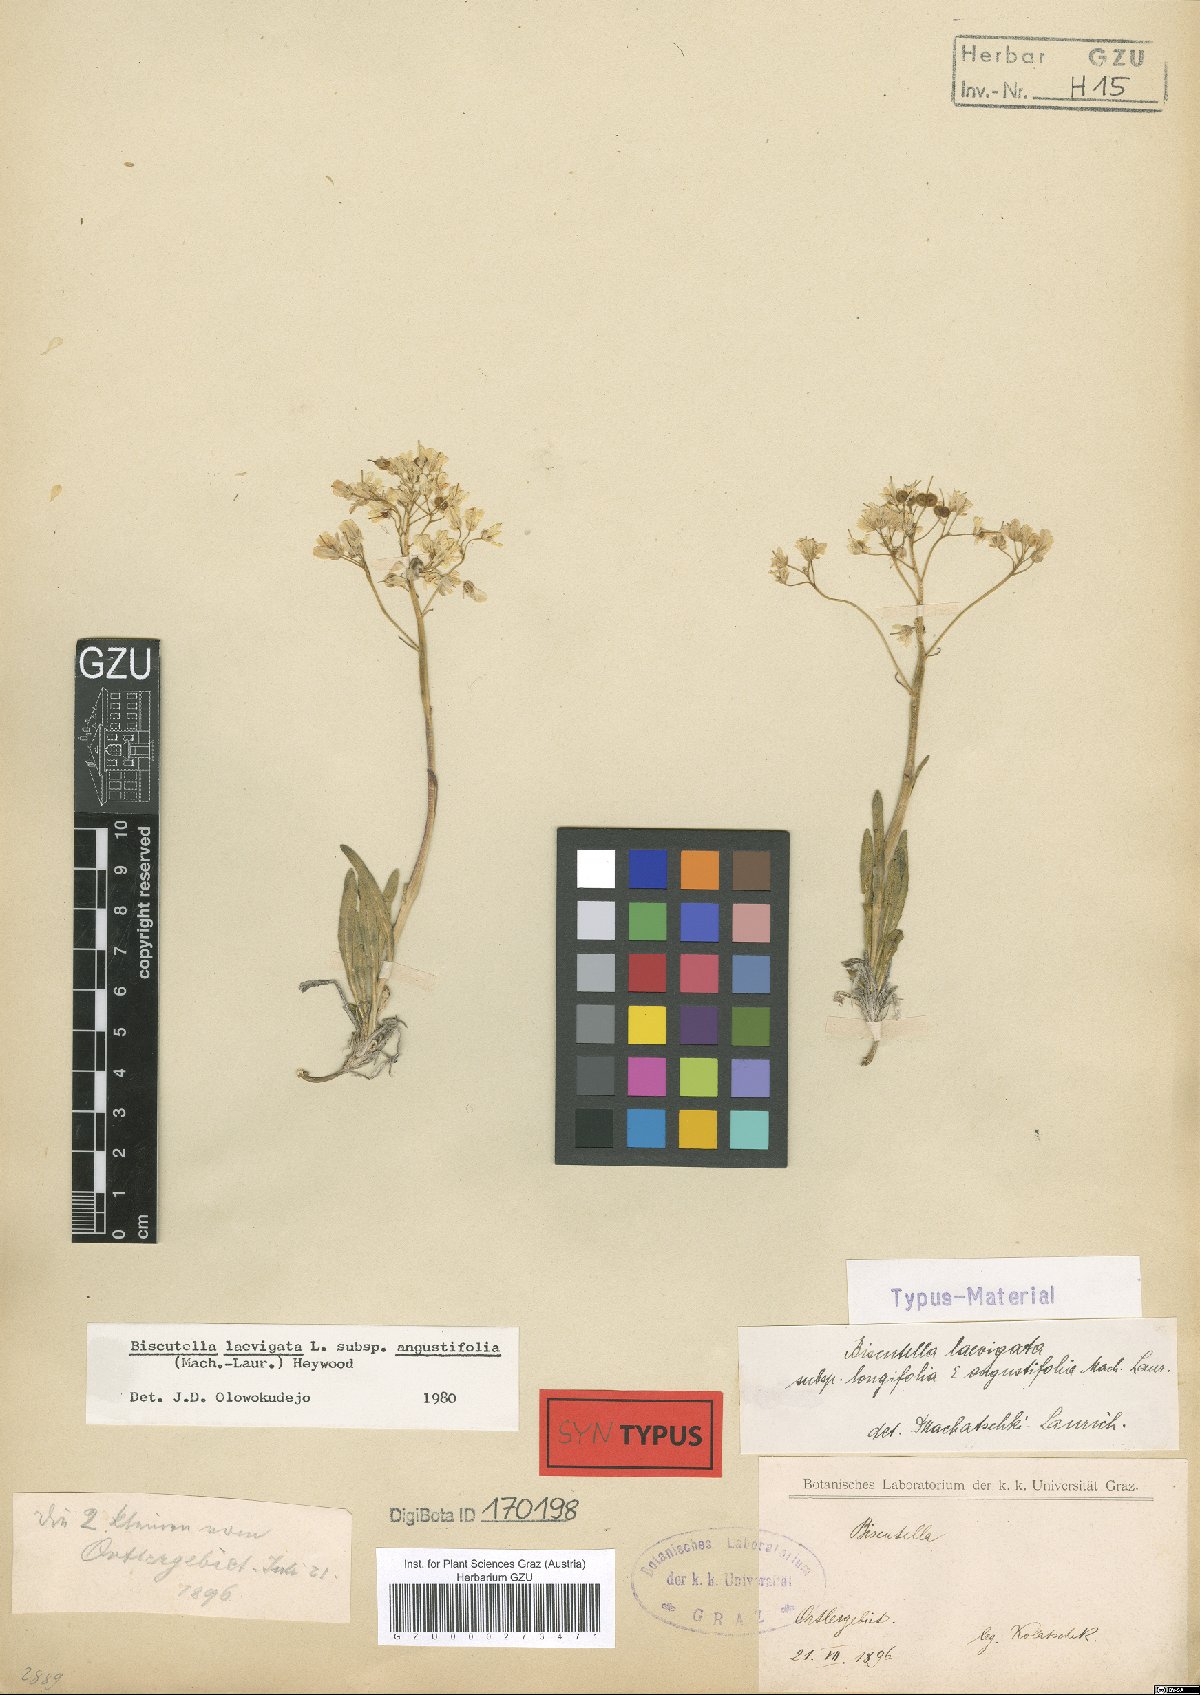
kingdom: Plantae
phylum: Tracheophyta
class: Magnoliopsida
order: Brassicales
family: Brassicaceae
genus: Biscutella
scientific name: Biscutella laevigata
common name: Buckler mustard
